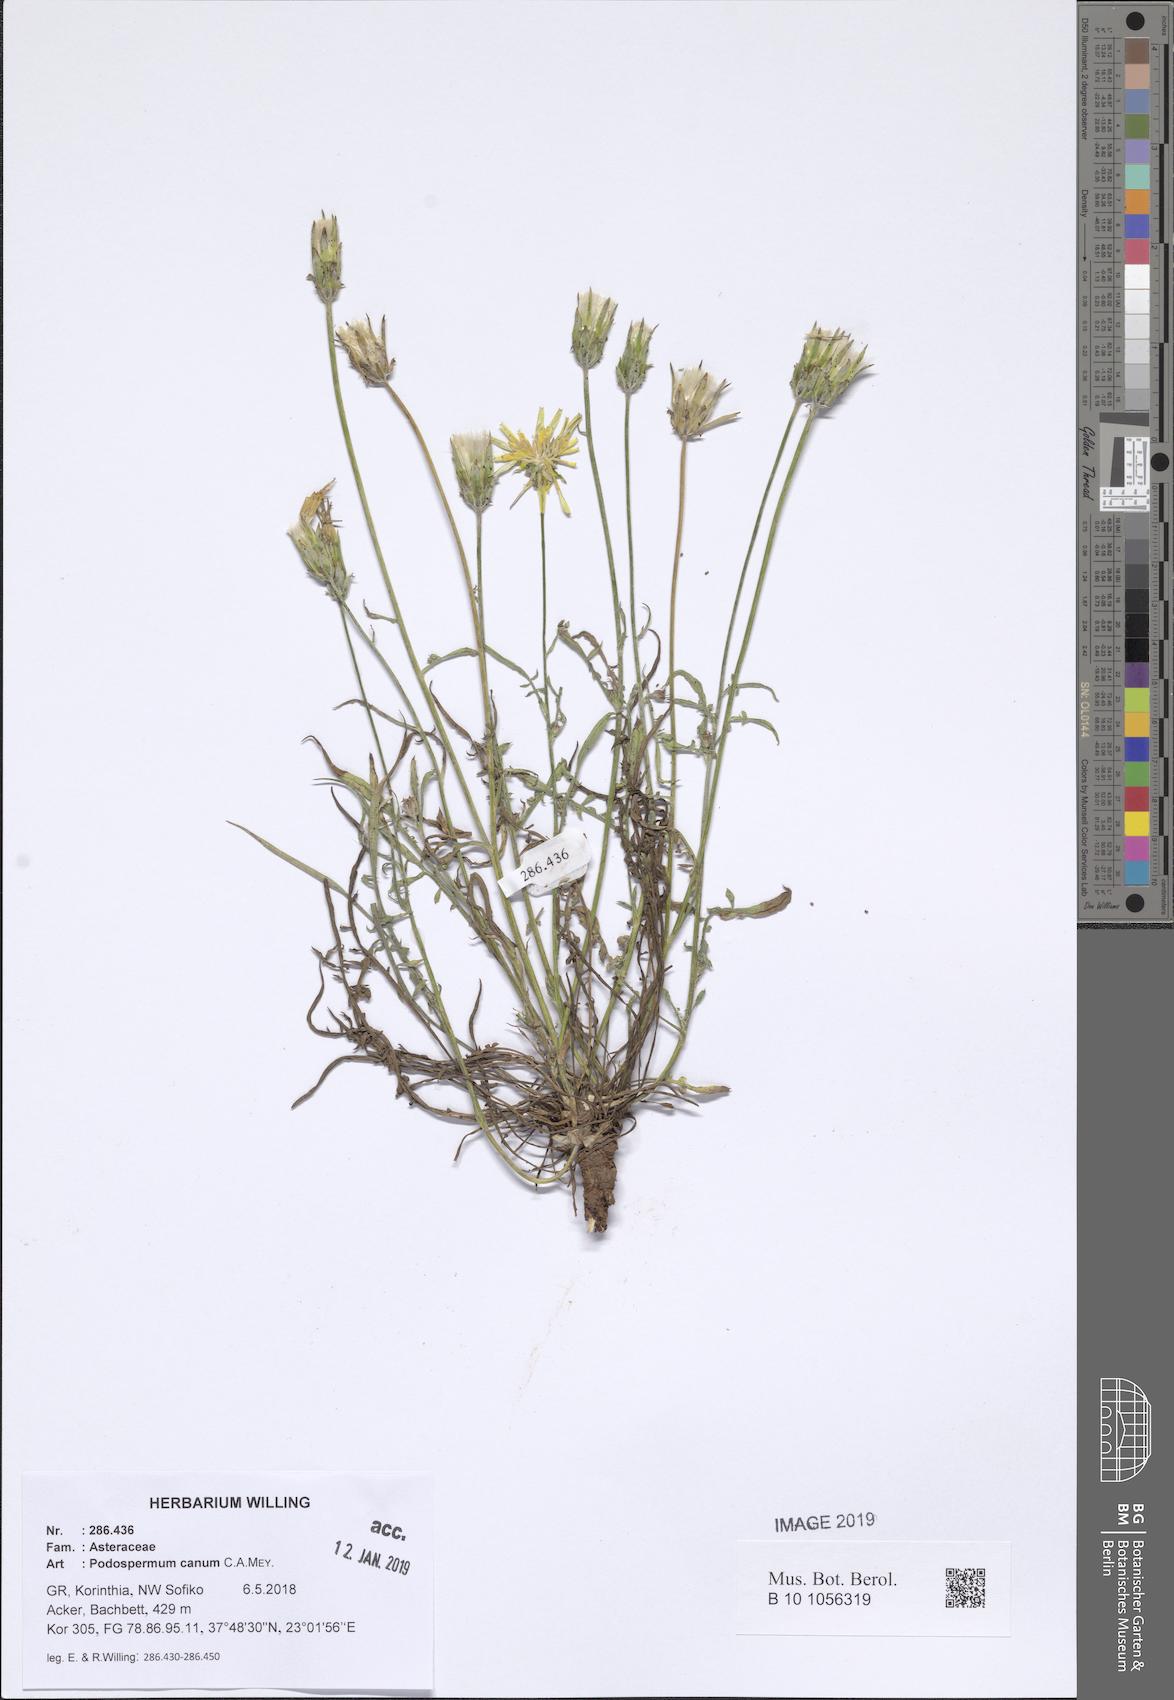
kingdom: Plantae
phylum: Tracheophyta
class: Magnoliopsida
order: Asterales
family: Asteraceae
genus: Scorzonera
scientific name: Scorzonera cana
